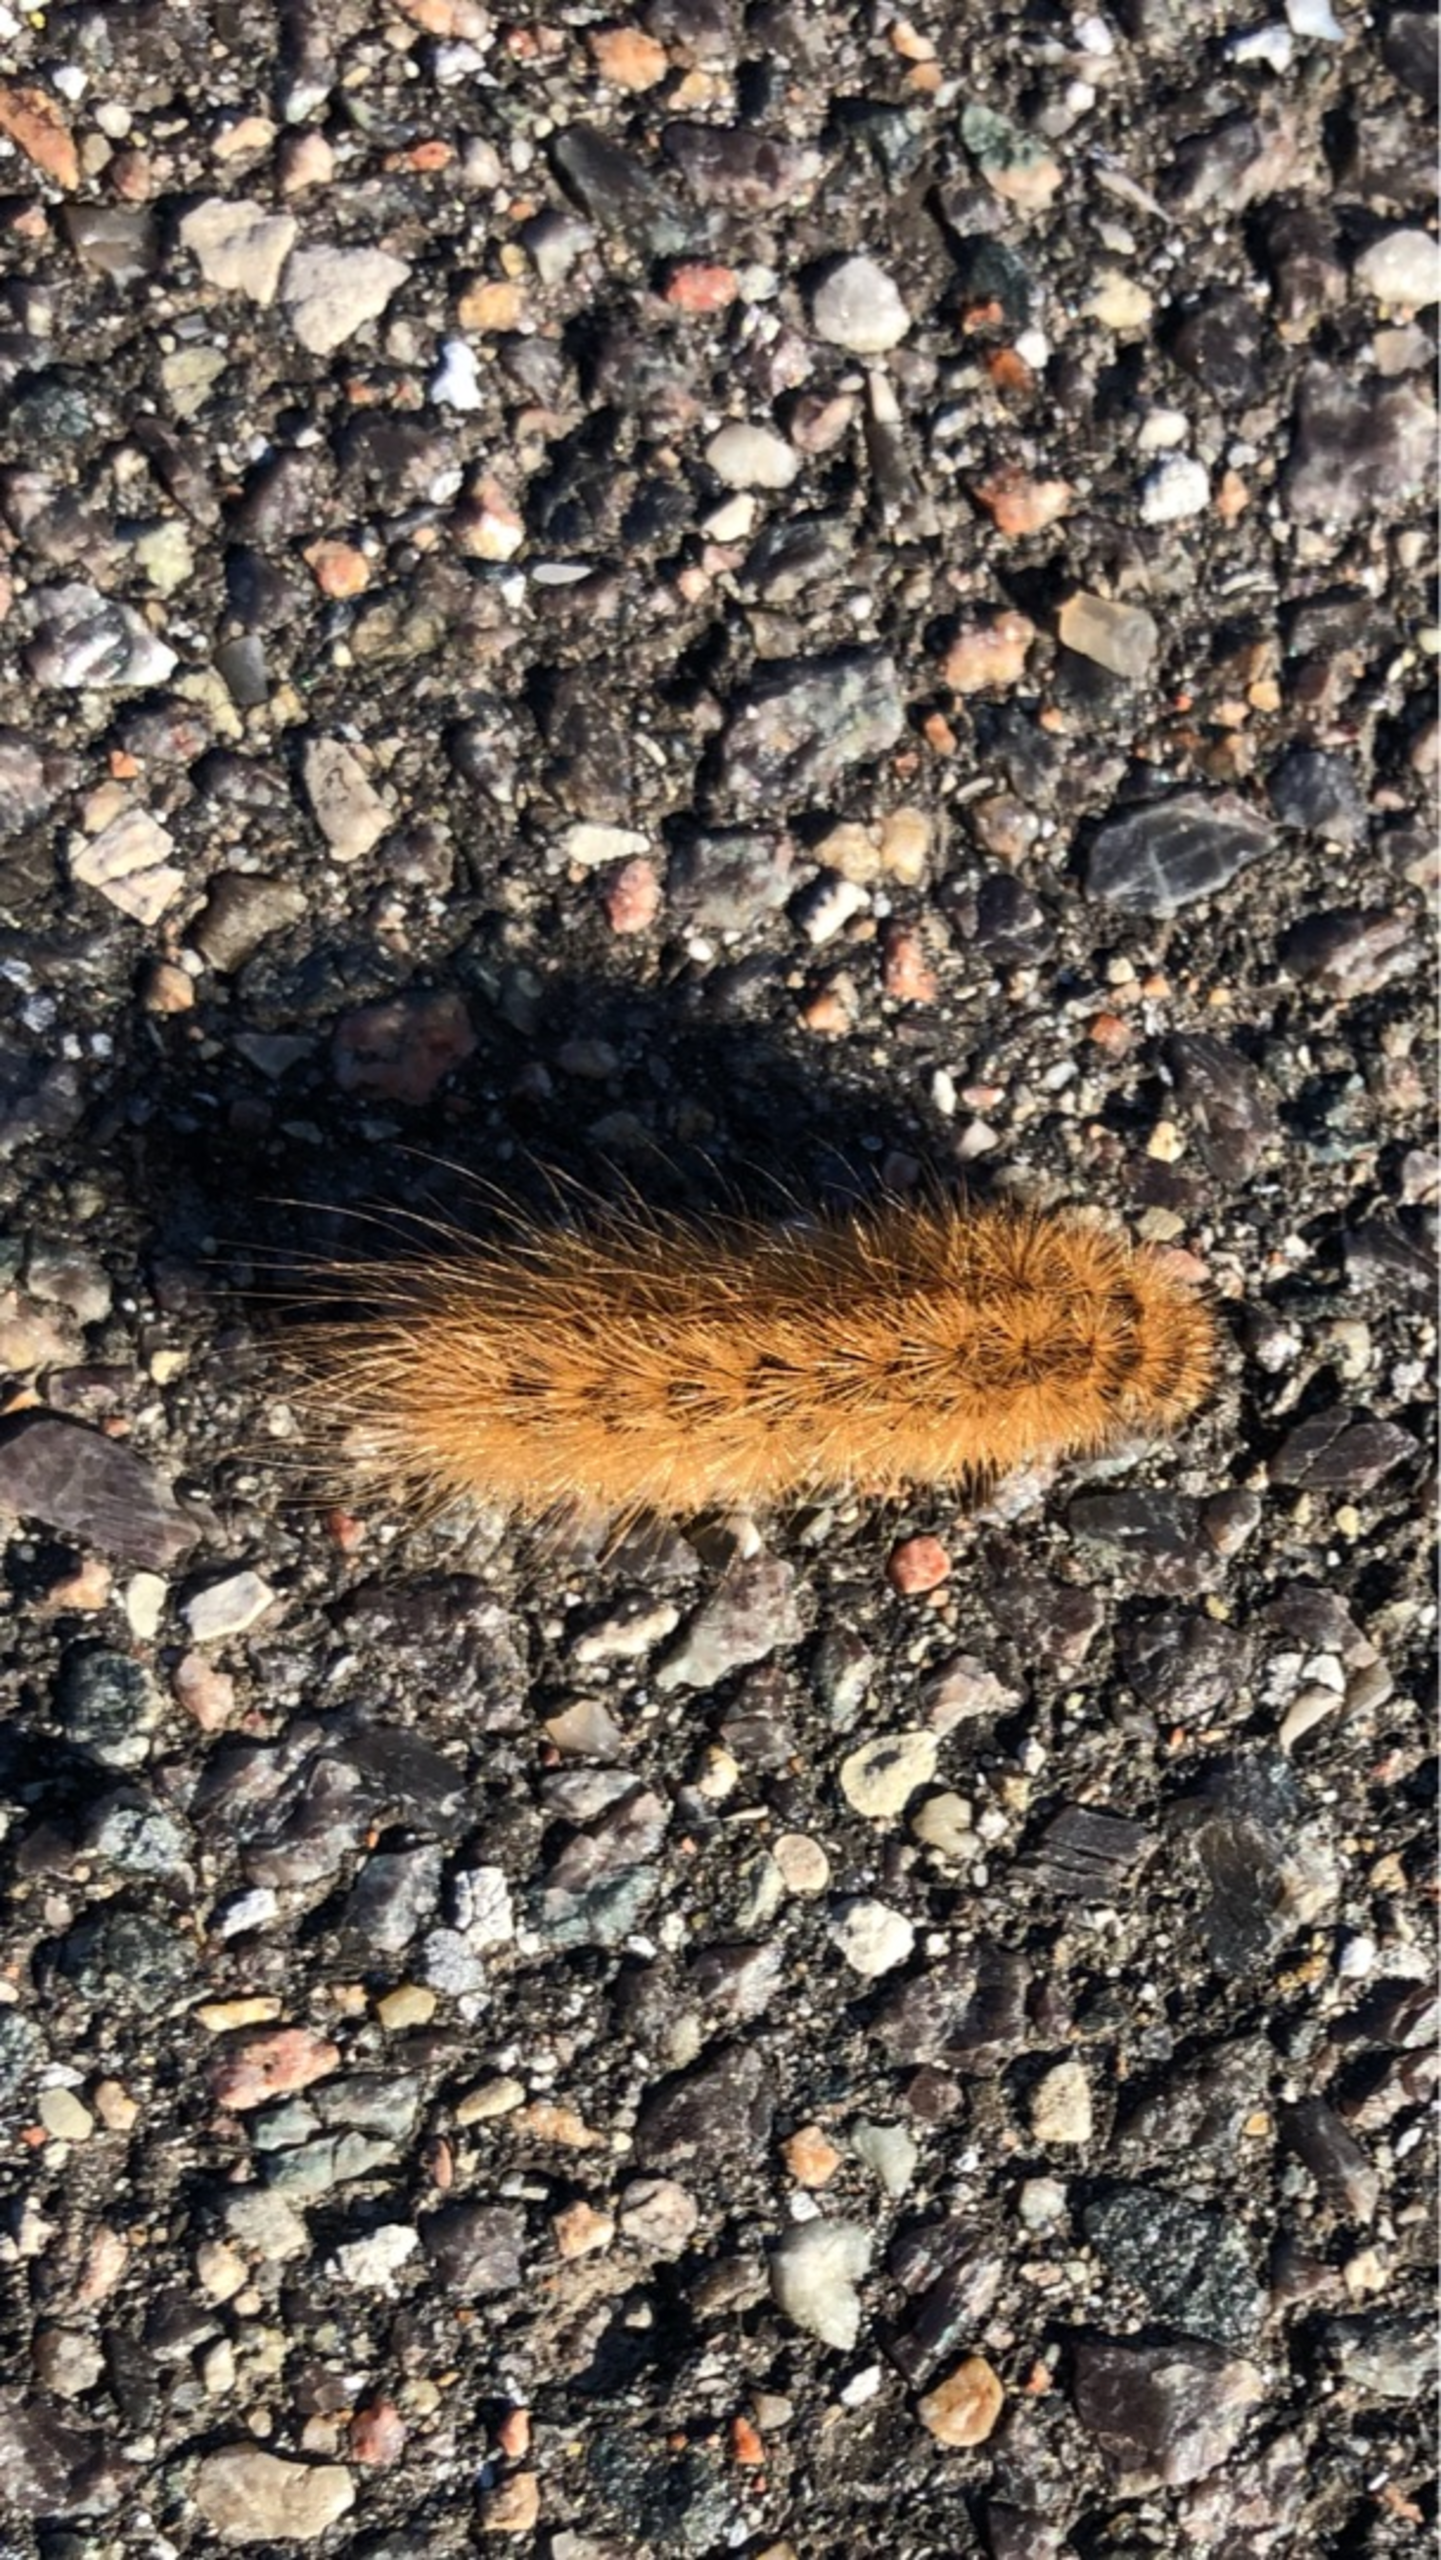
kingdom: Animalia
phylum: Arthropoda
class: Insecta
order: Lepidoptera
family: Erebidae
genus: Phragmatobia
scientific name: Phragmatobia fuliginosa
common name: Kanelbjørn
